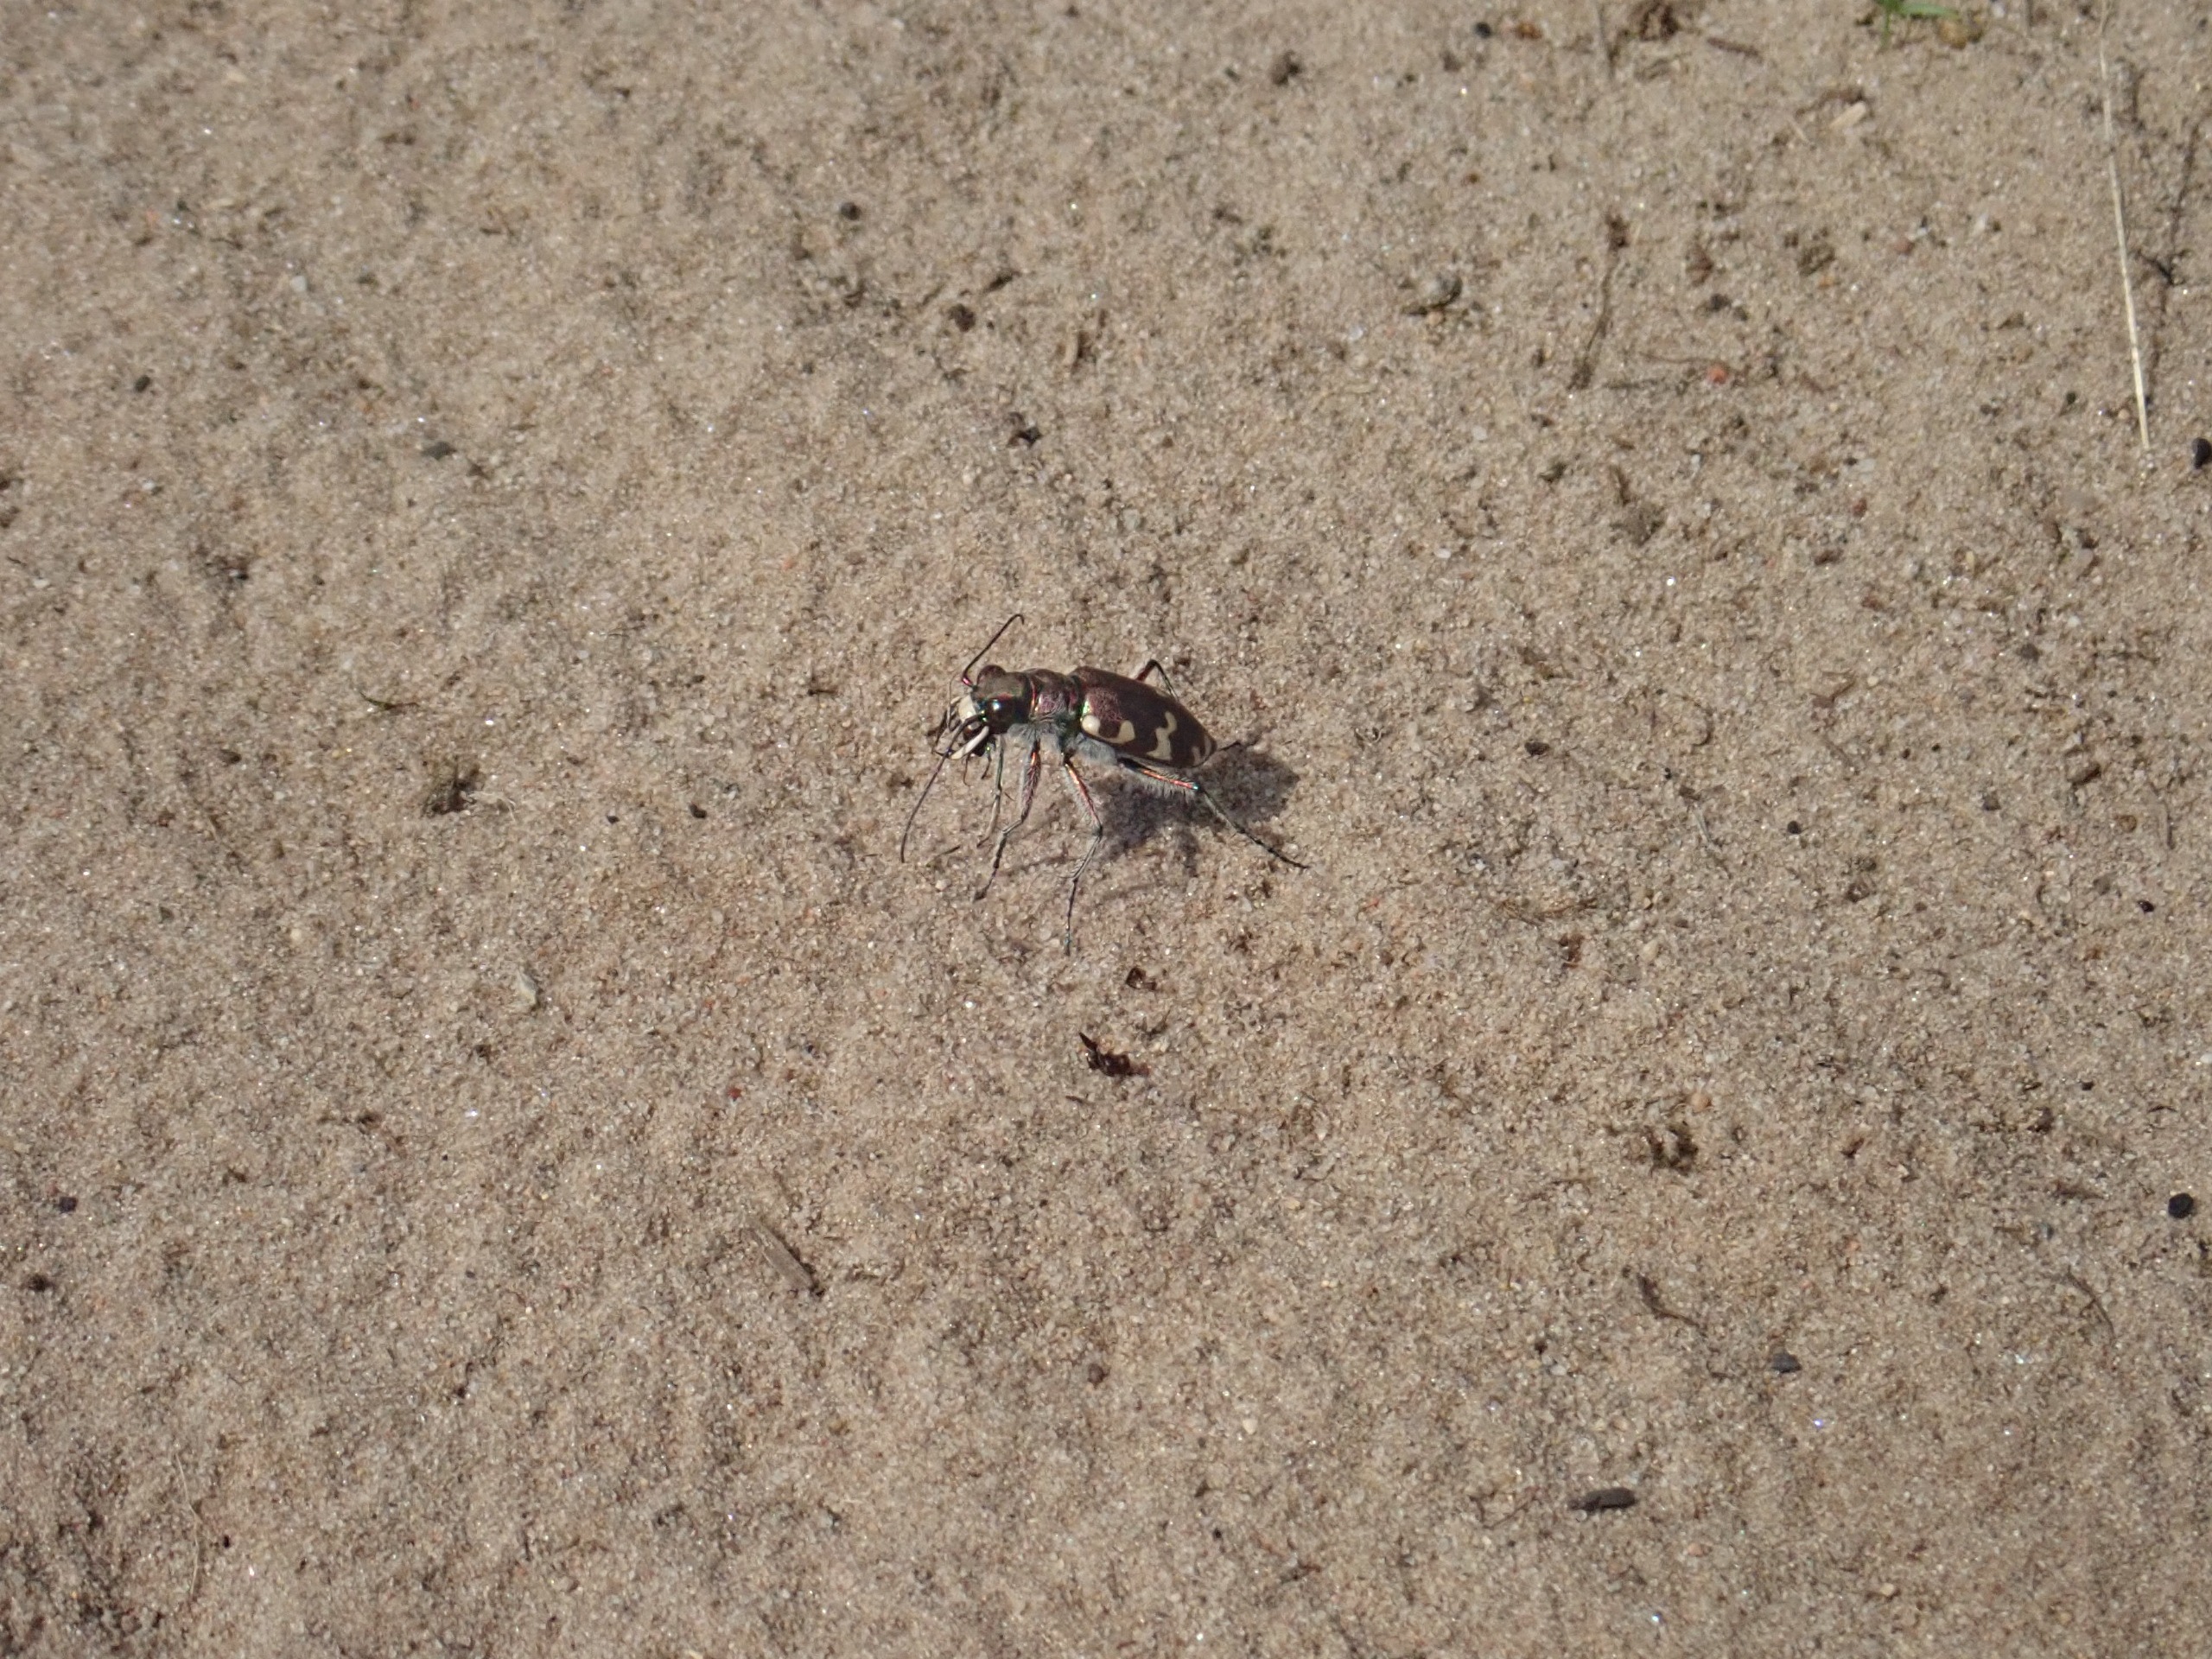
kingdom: Animalia
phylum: Arthropoda
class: Insecta
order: Coleoptera
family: Carabidae
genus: Cicindela
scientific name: Cicindela hybrida
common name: Brun sandspringer
